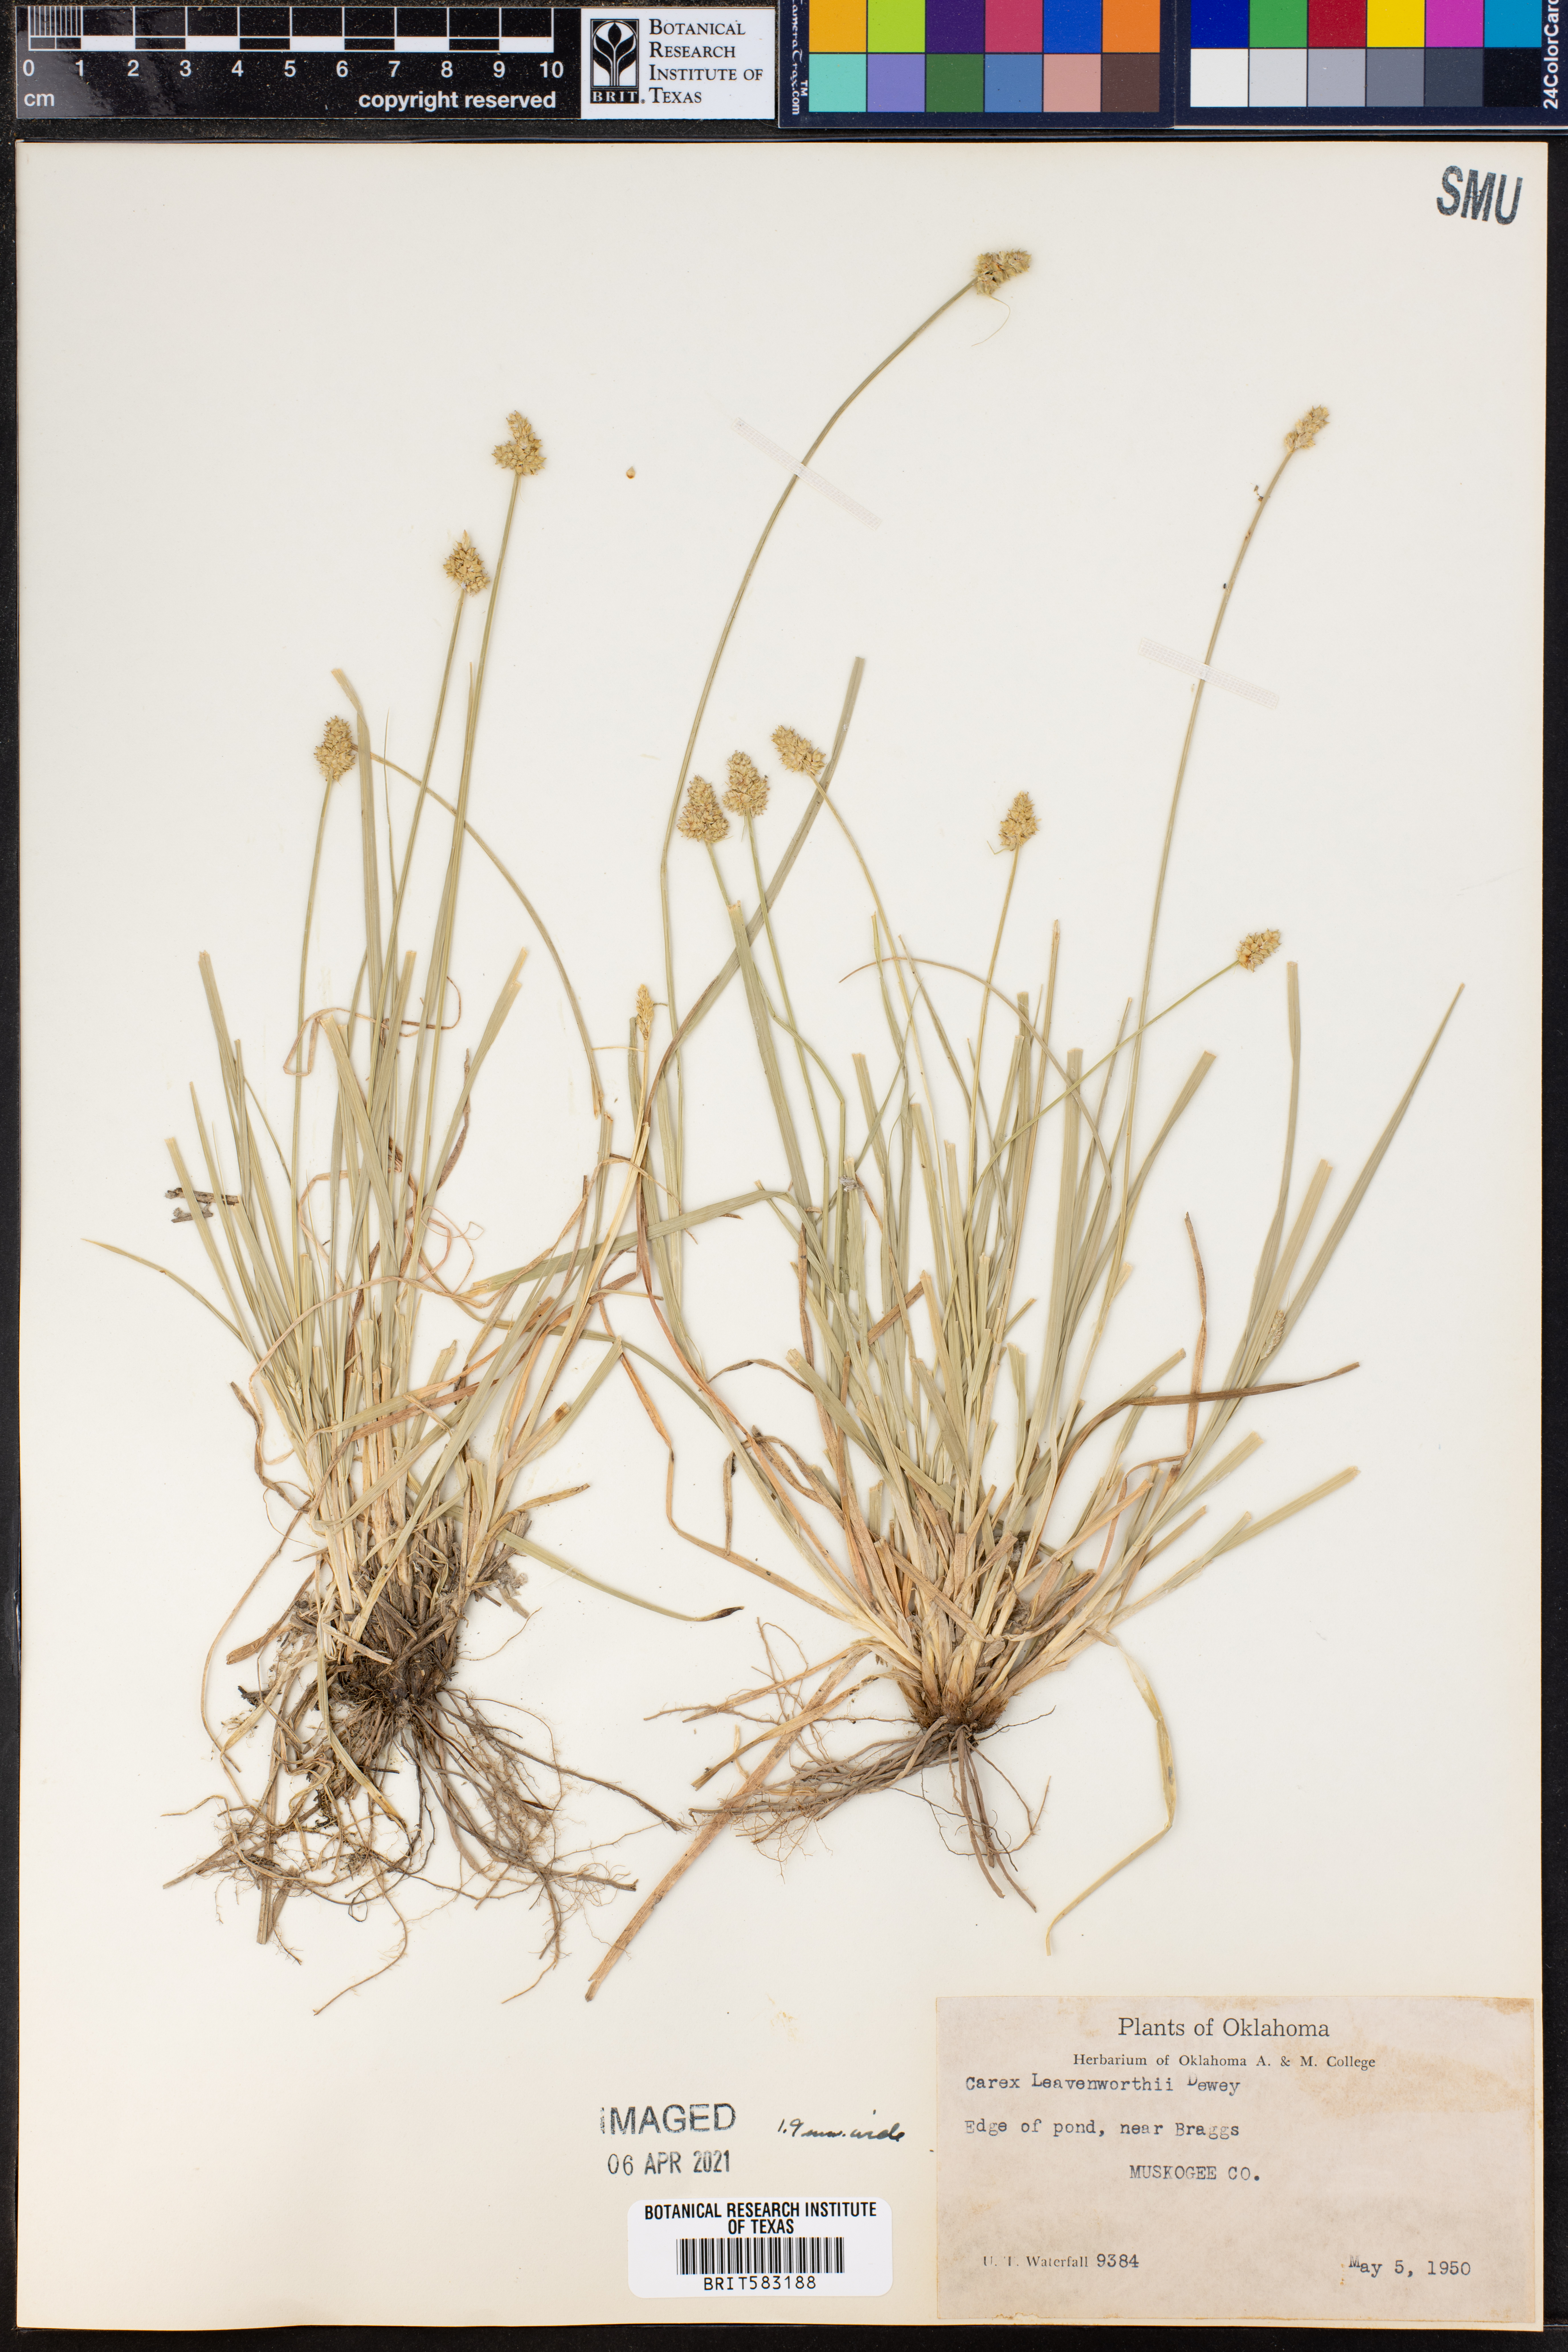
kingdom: Plantae
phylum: Tracheophyta
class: Liliopsida
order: Poales
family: Cyperaceae
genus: Carex
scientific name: Carex leavenworthii
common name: Leavenworth's bracted sedge
